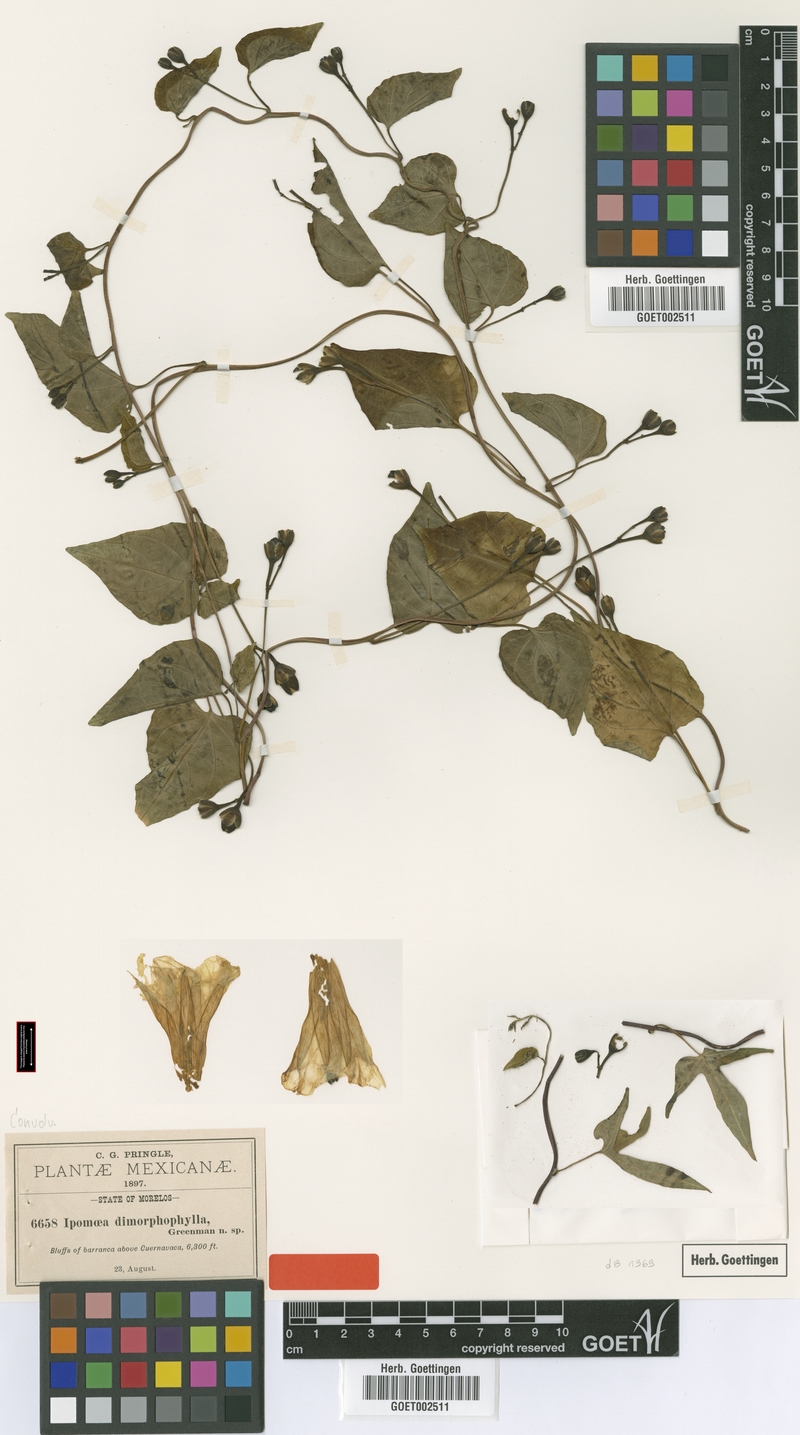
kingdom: Plantae
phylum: Tracheophyta
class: Magnoliopsida
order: Solanales
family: Convolvulaceae
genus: Ipomoea
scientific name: Ipomoea proxima
